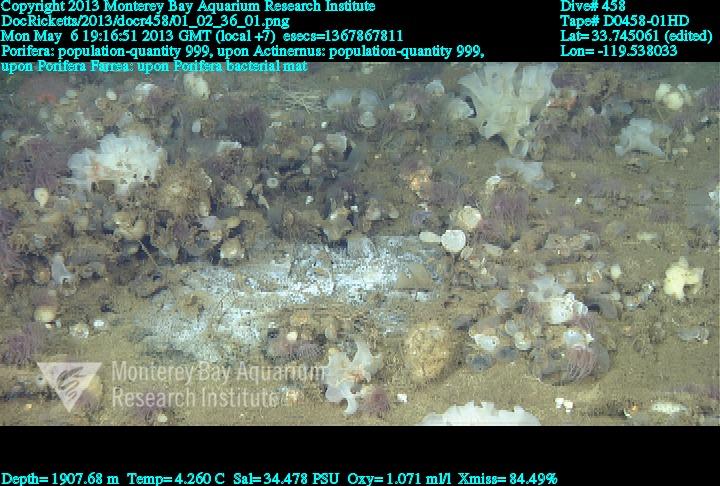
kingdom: Animalia
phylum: Porifera
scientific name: Porifera
